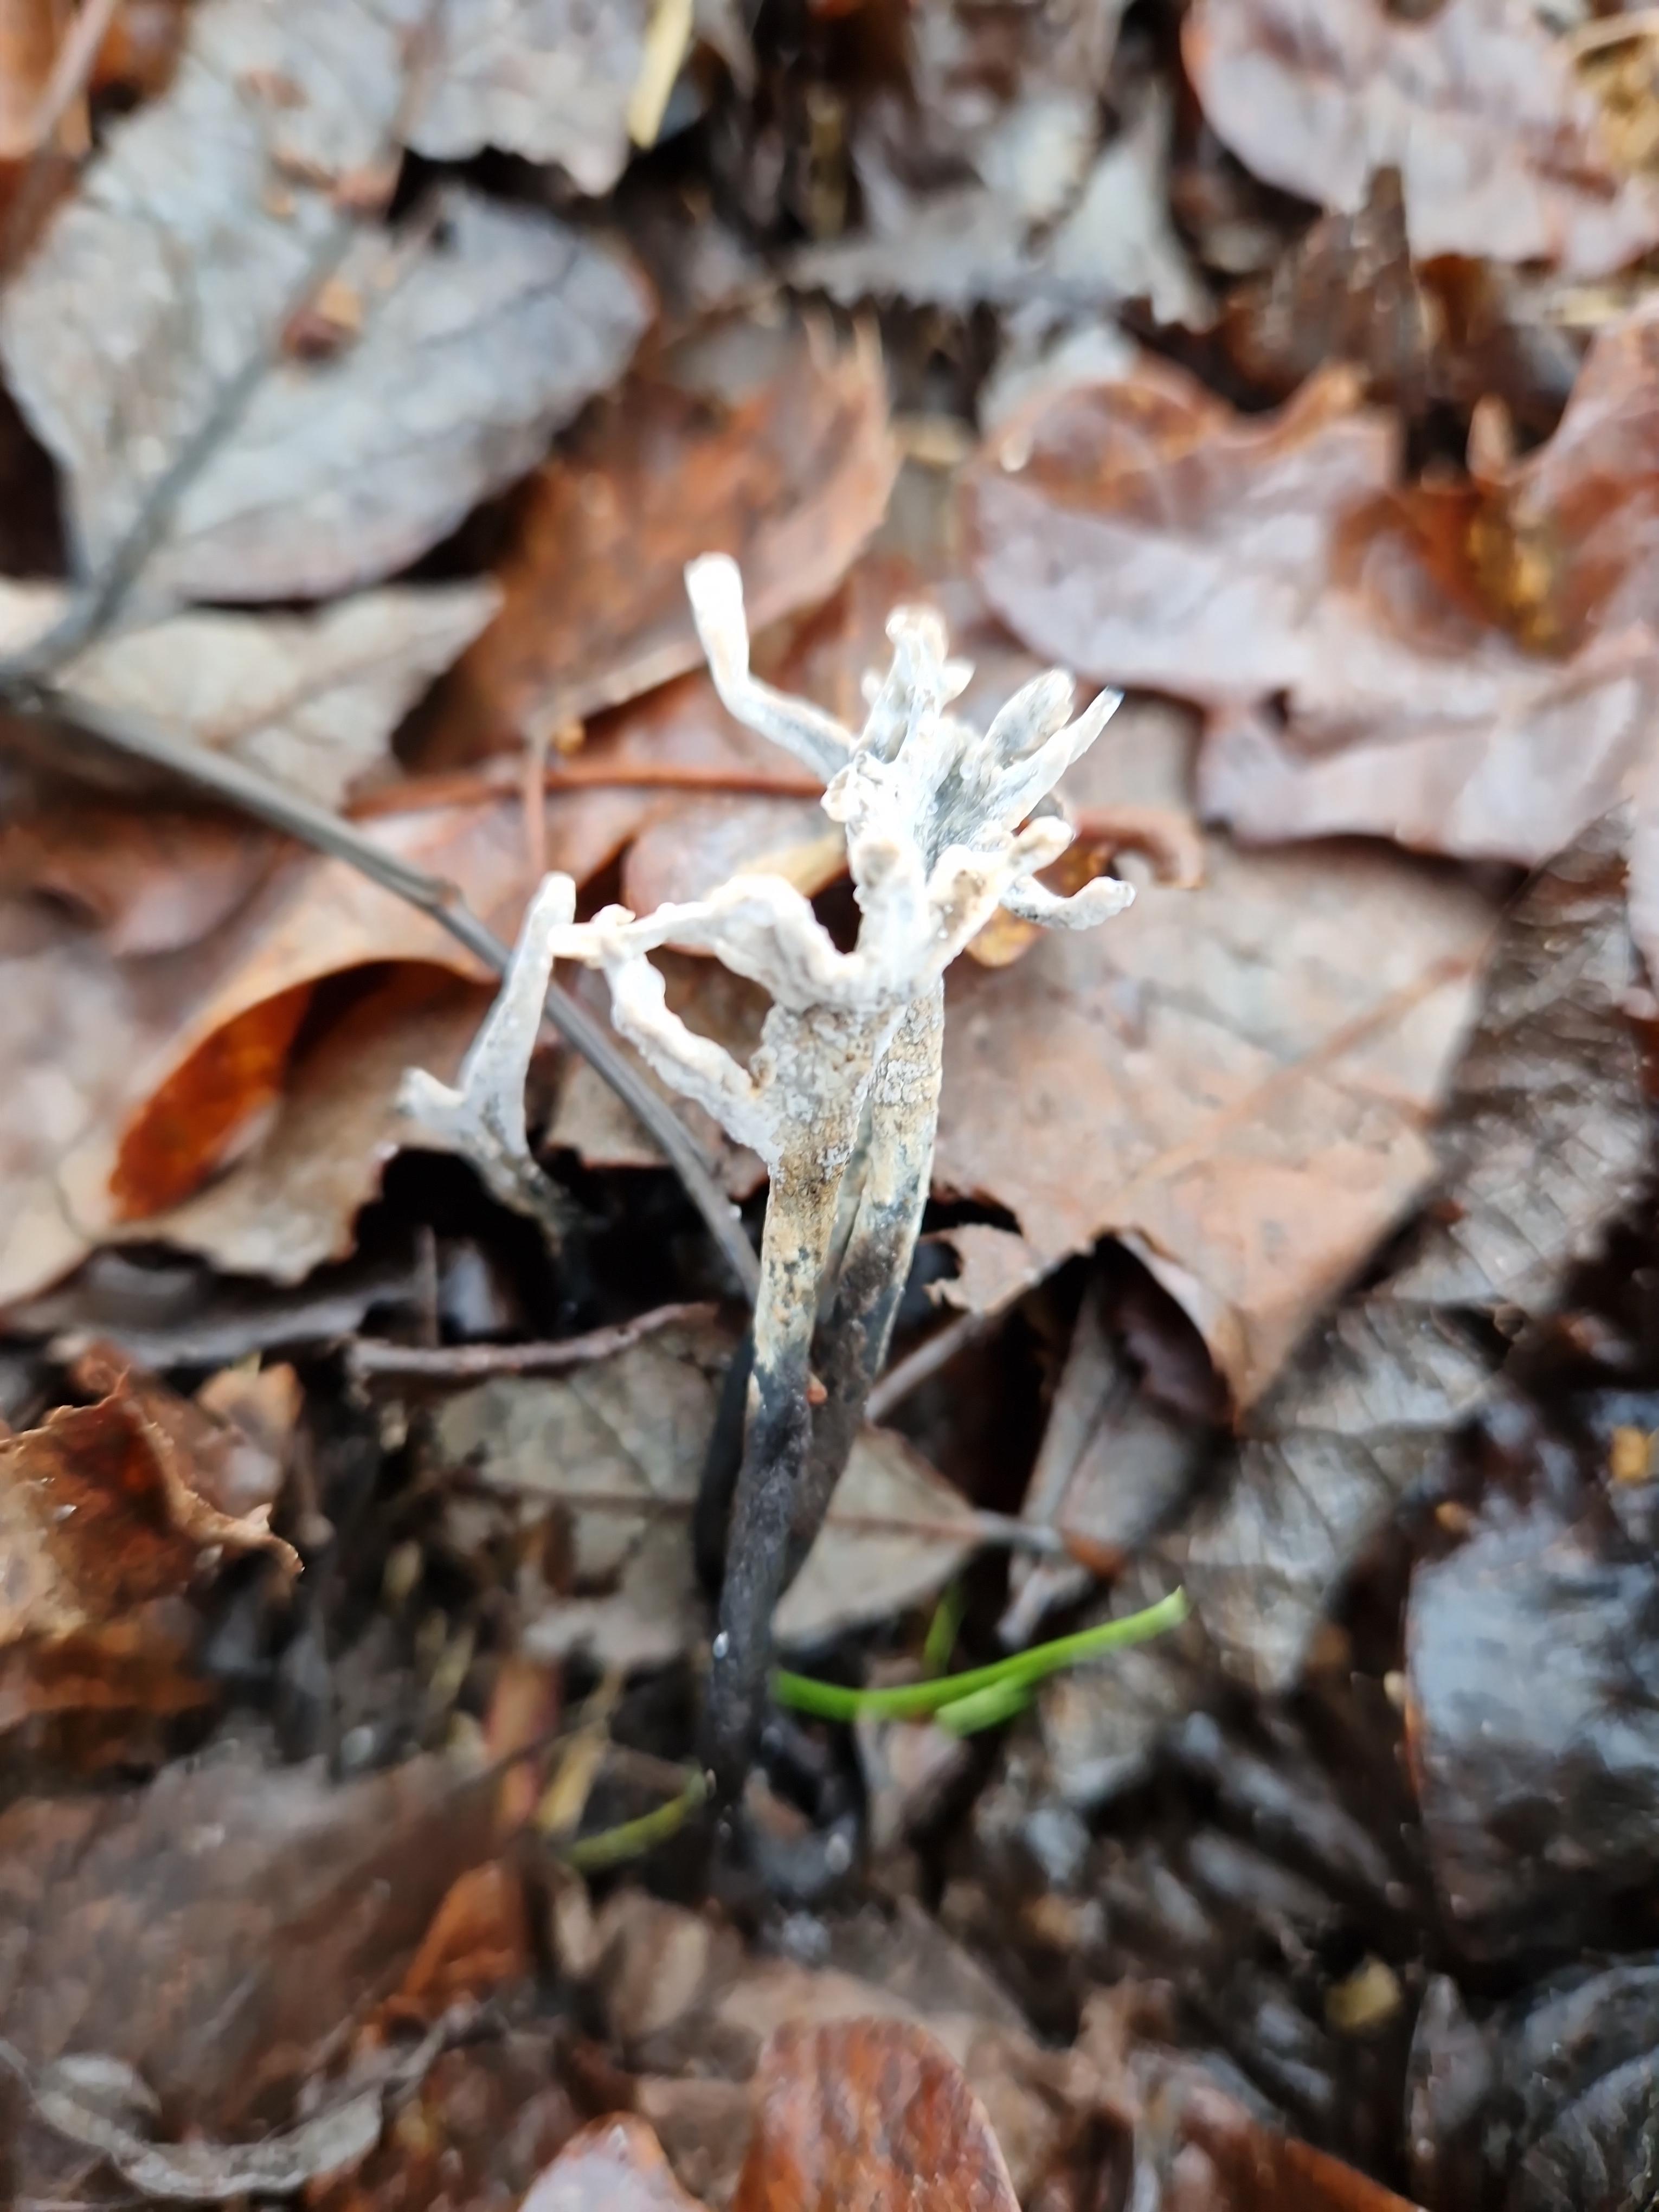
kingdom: Fungi
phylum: Ascomycota
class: Sordariomycetes
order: Xylariales
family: Xylariaceae
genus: Xylaria
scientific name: Xylaria hypoxylon
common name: grenet stødsvamp
